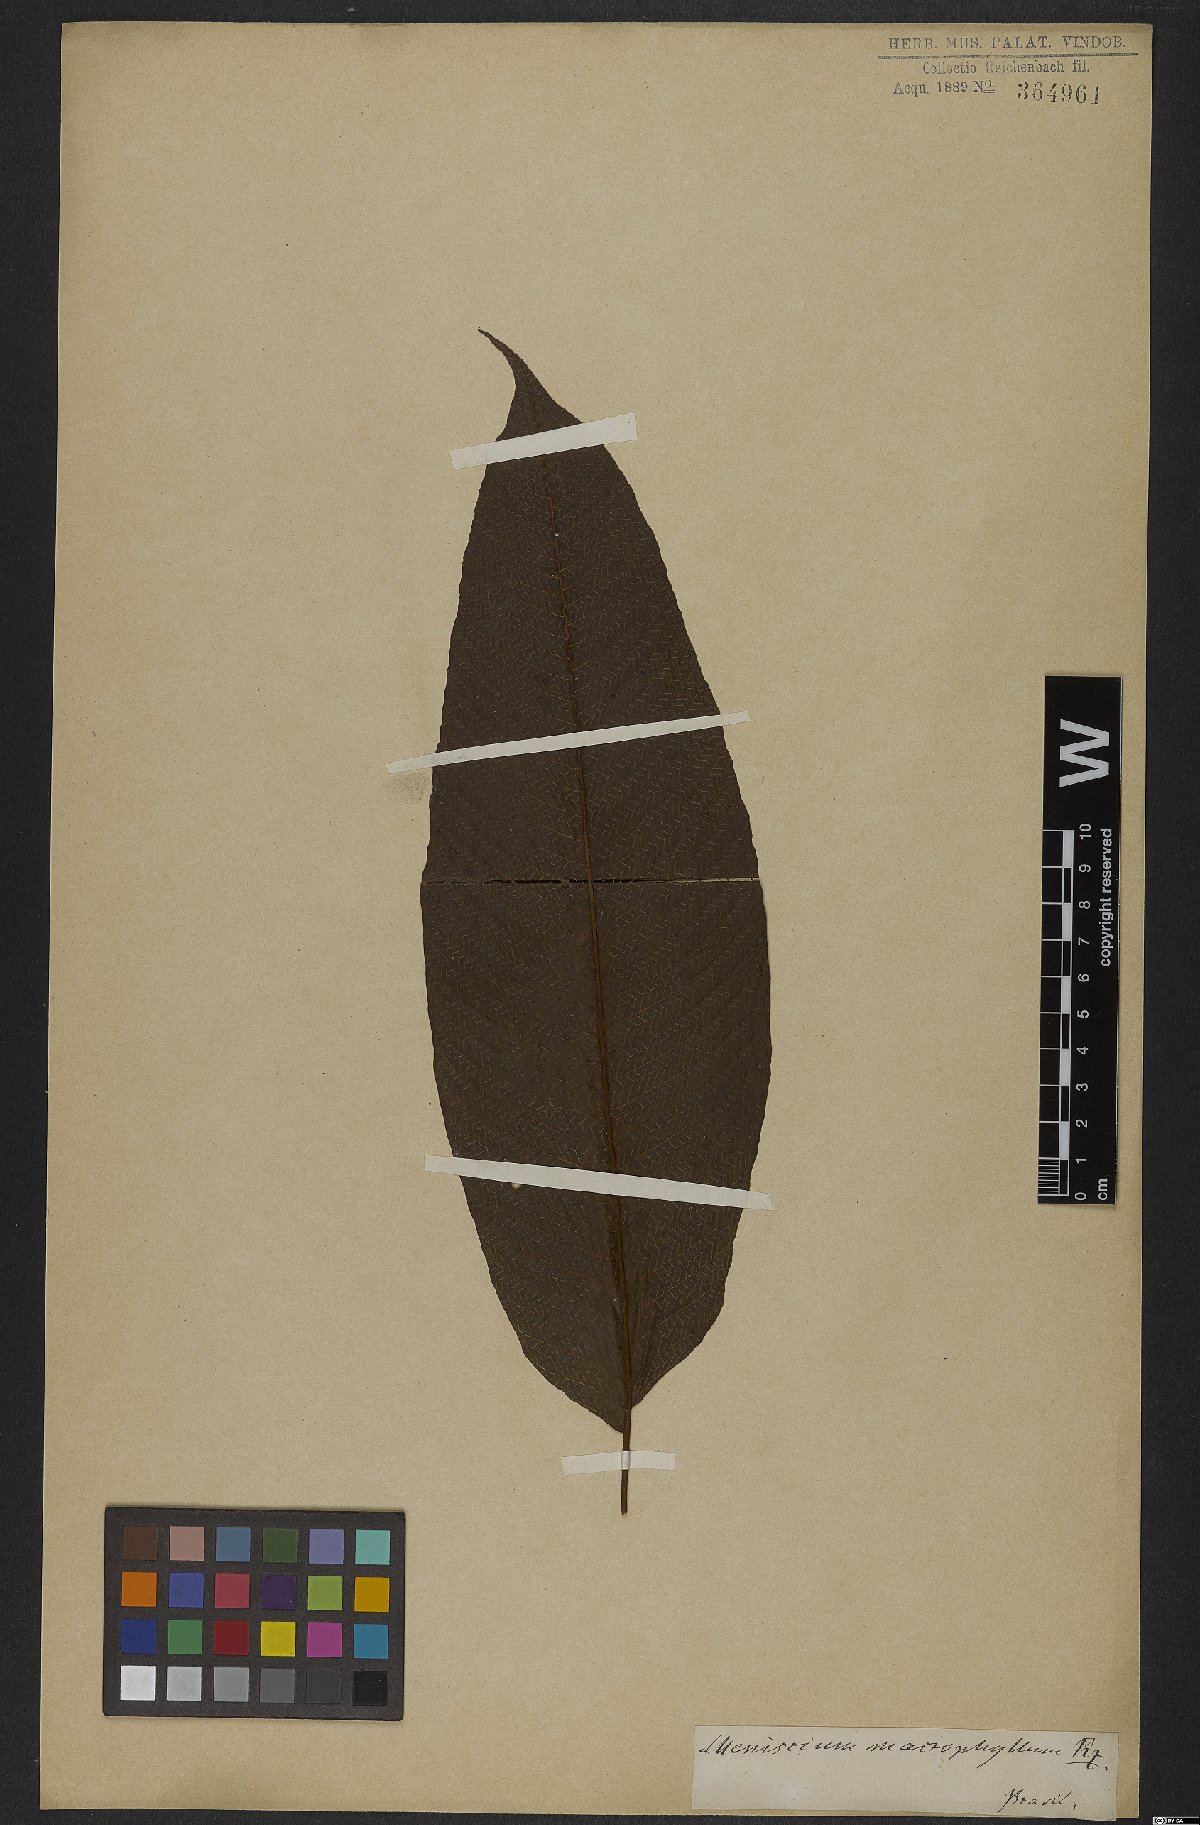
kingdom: Plantae
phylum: Tracheophyta
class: Polypodiopsida
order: Polypodiales
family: Thelypteridaceae
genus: Meniscium
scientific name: Meniscium reticulatum
